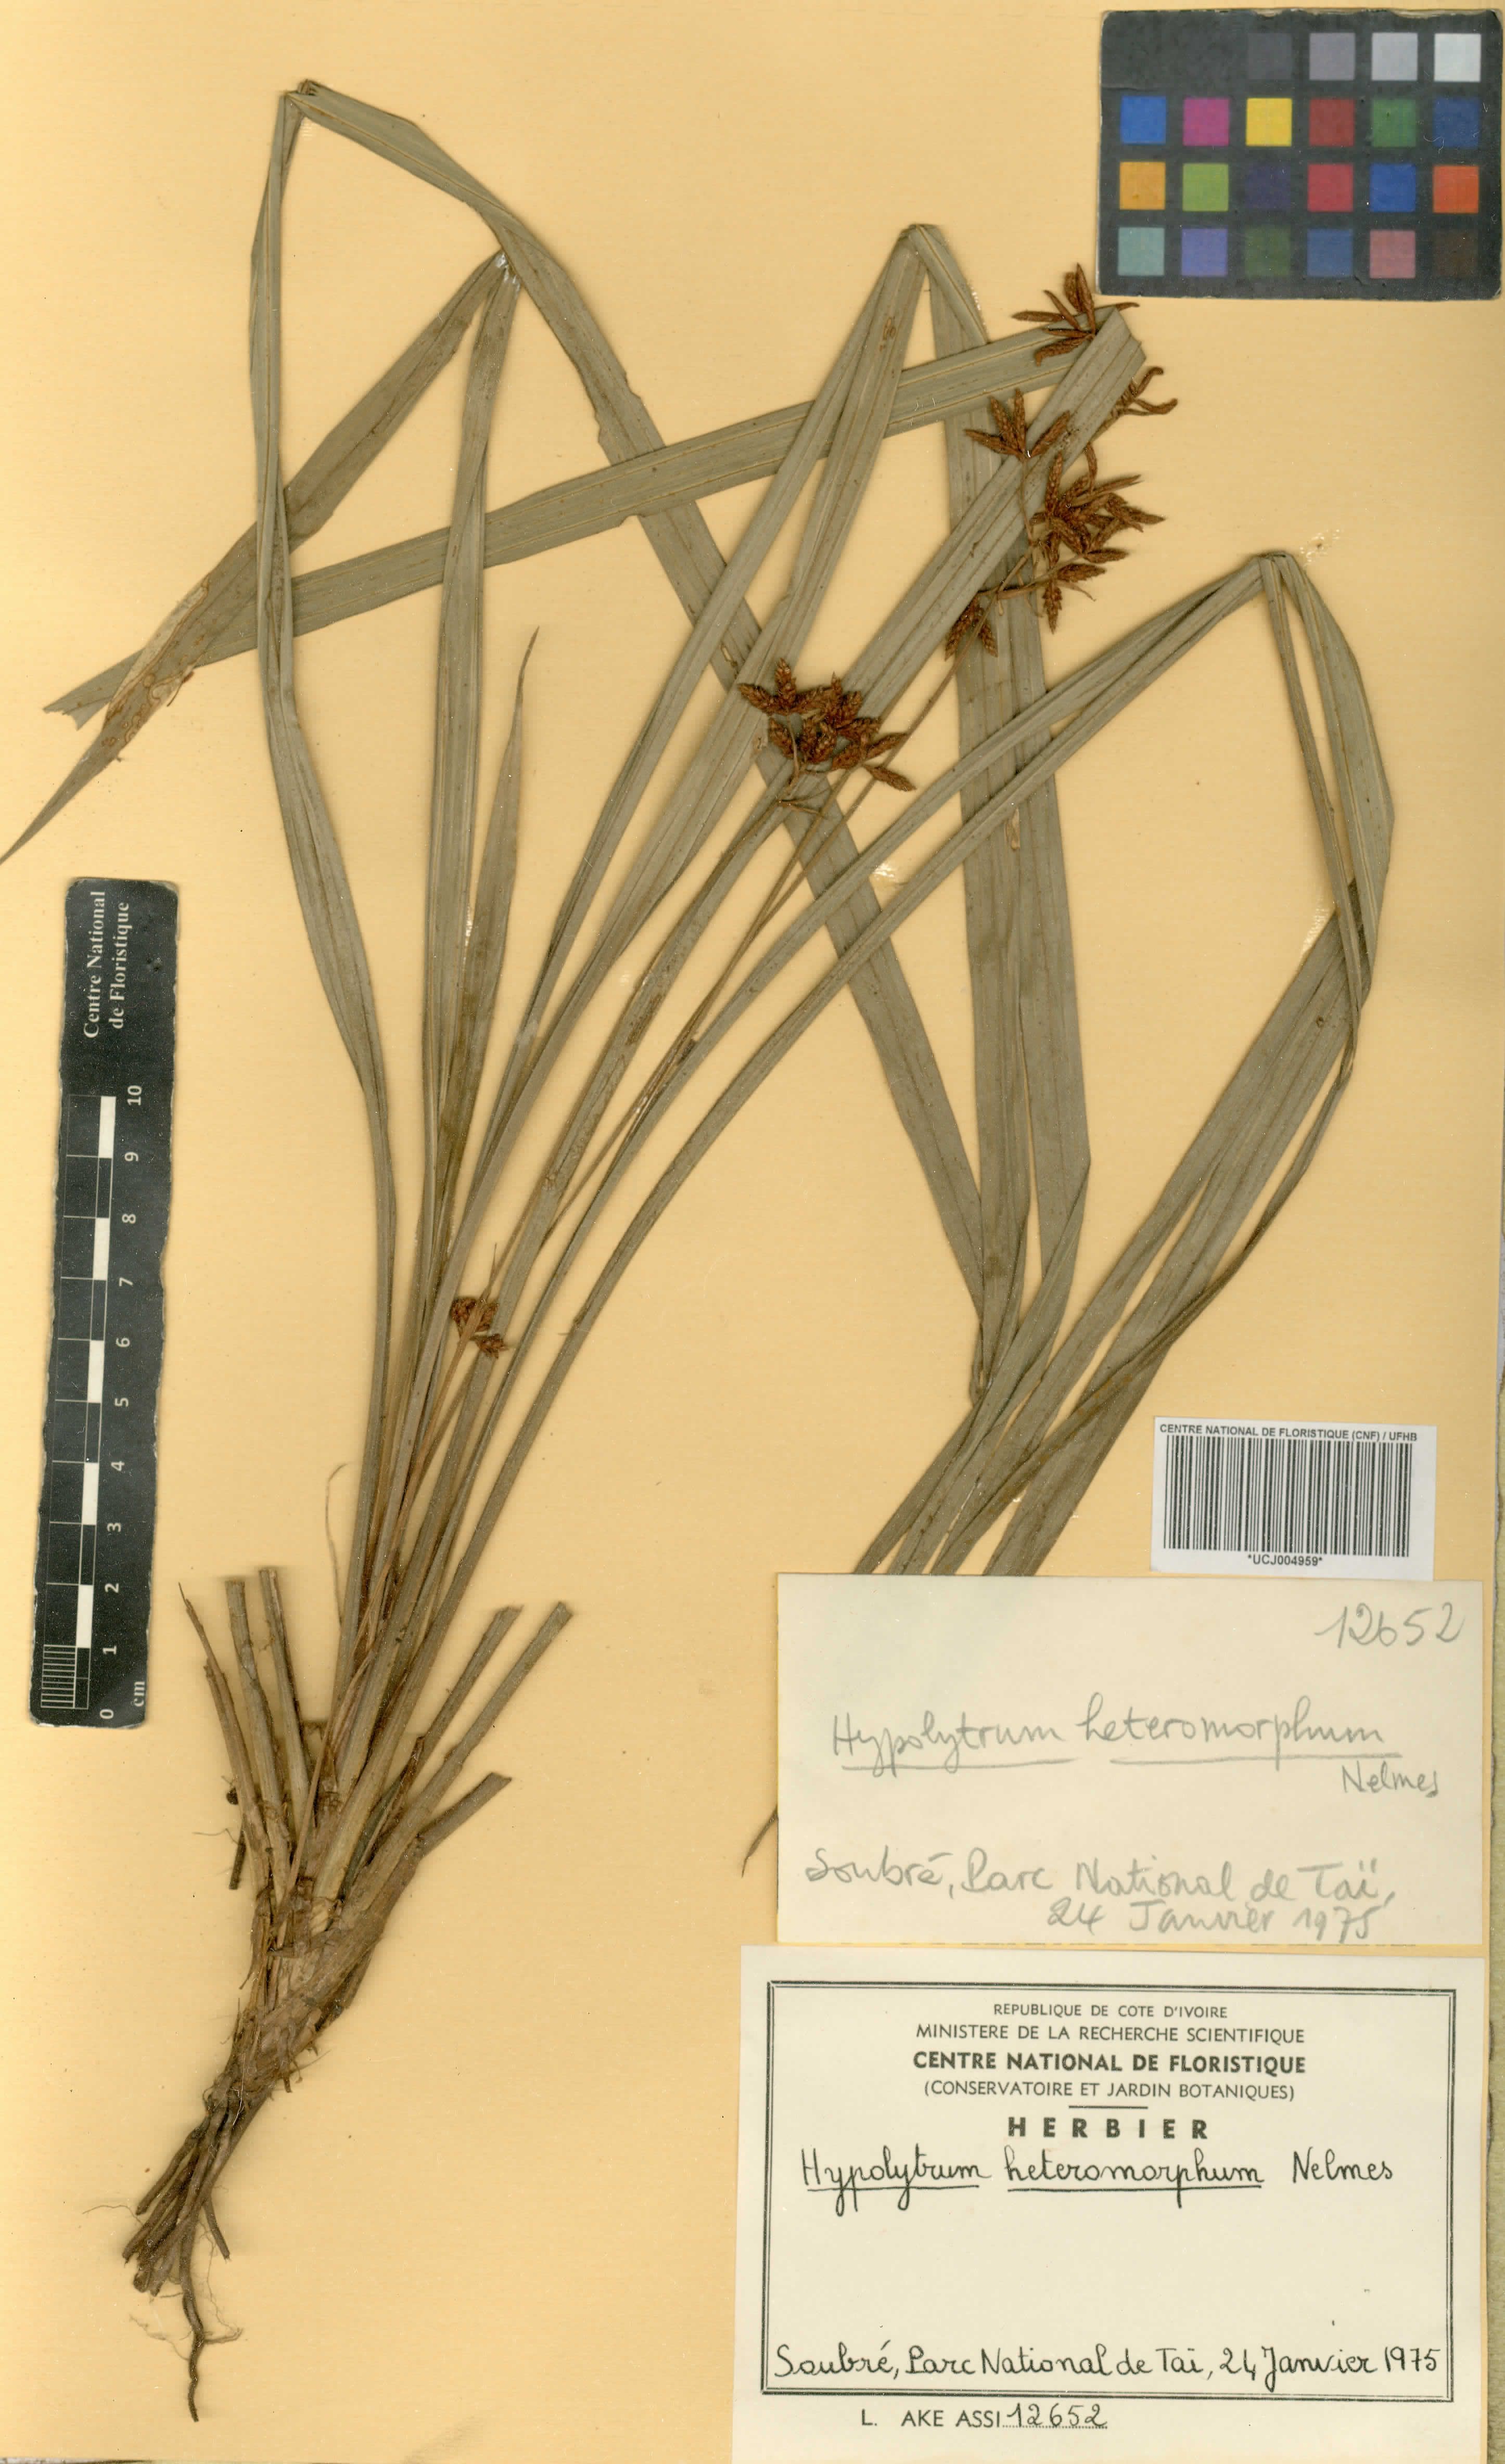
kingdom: Plantae
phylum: Tracheophyta
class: Liliopsida
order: Poales
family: Cyperaceae
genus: Hypolytrum
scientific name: Hypolytrum heteromorphum
